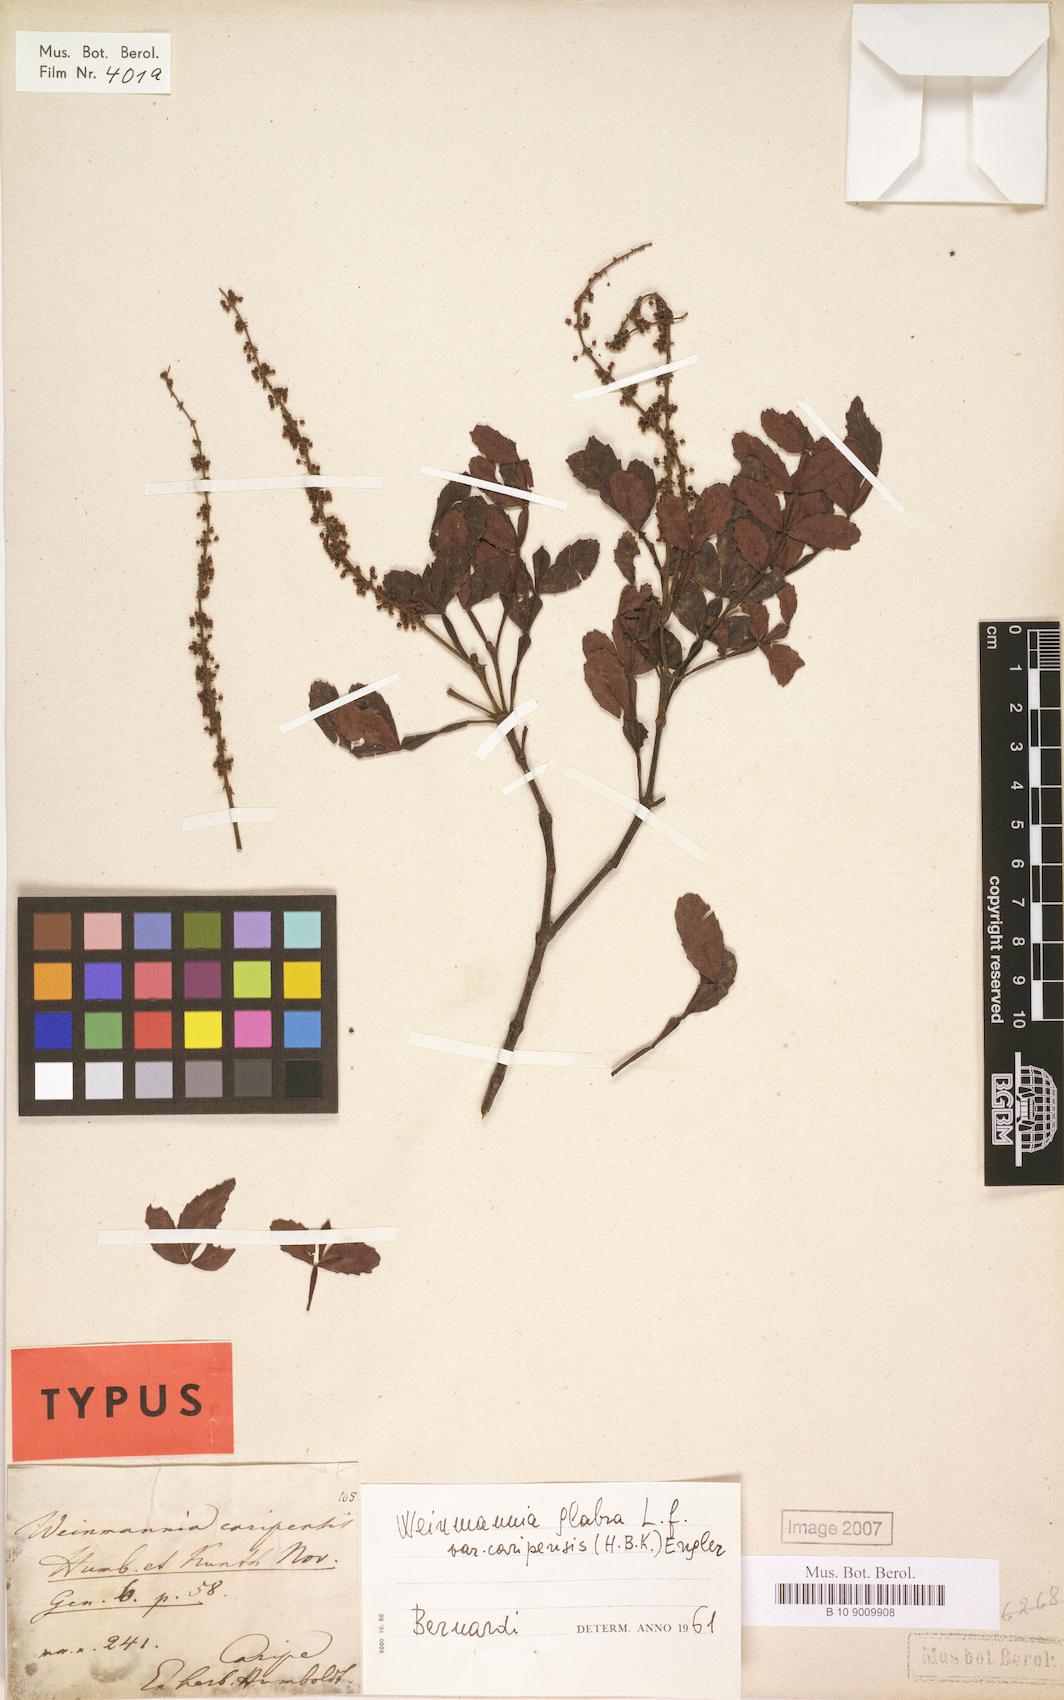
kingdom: Plantae
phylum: Tracheophyta
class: Magnoliopsida
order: Oxalidales
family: Cunoniaceae
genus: Weinmannia
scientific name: Weinmannia pinnata
